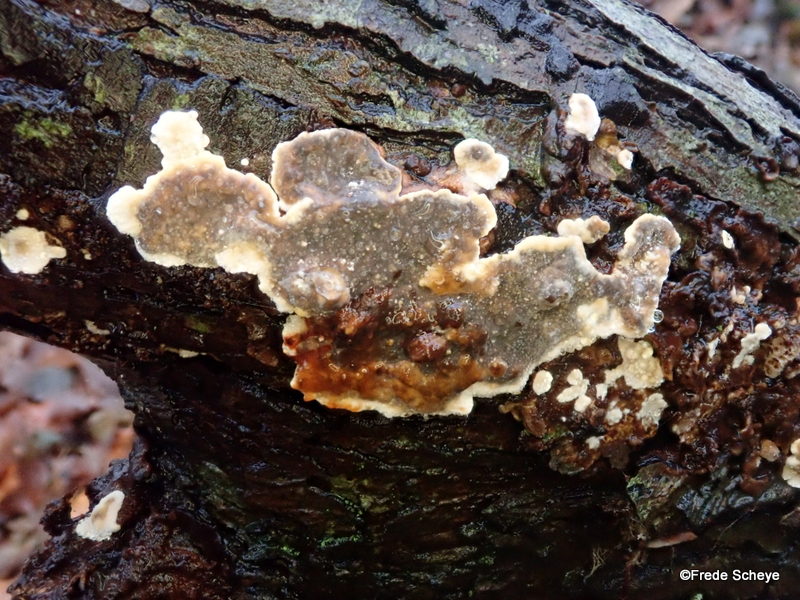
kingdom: Fungi
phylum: Basidiomycota
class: Agaricomycetes
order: Russulales
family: Stereaceae
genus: Stereum
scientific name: Stereum rugosum
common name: rynket lædersvamp
